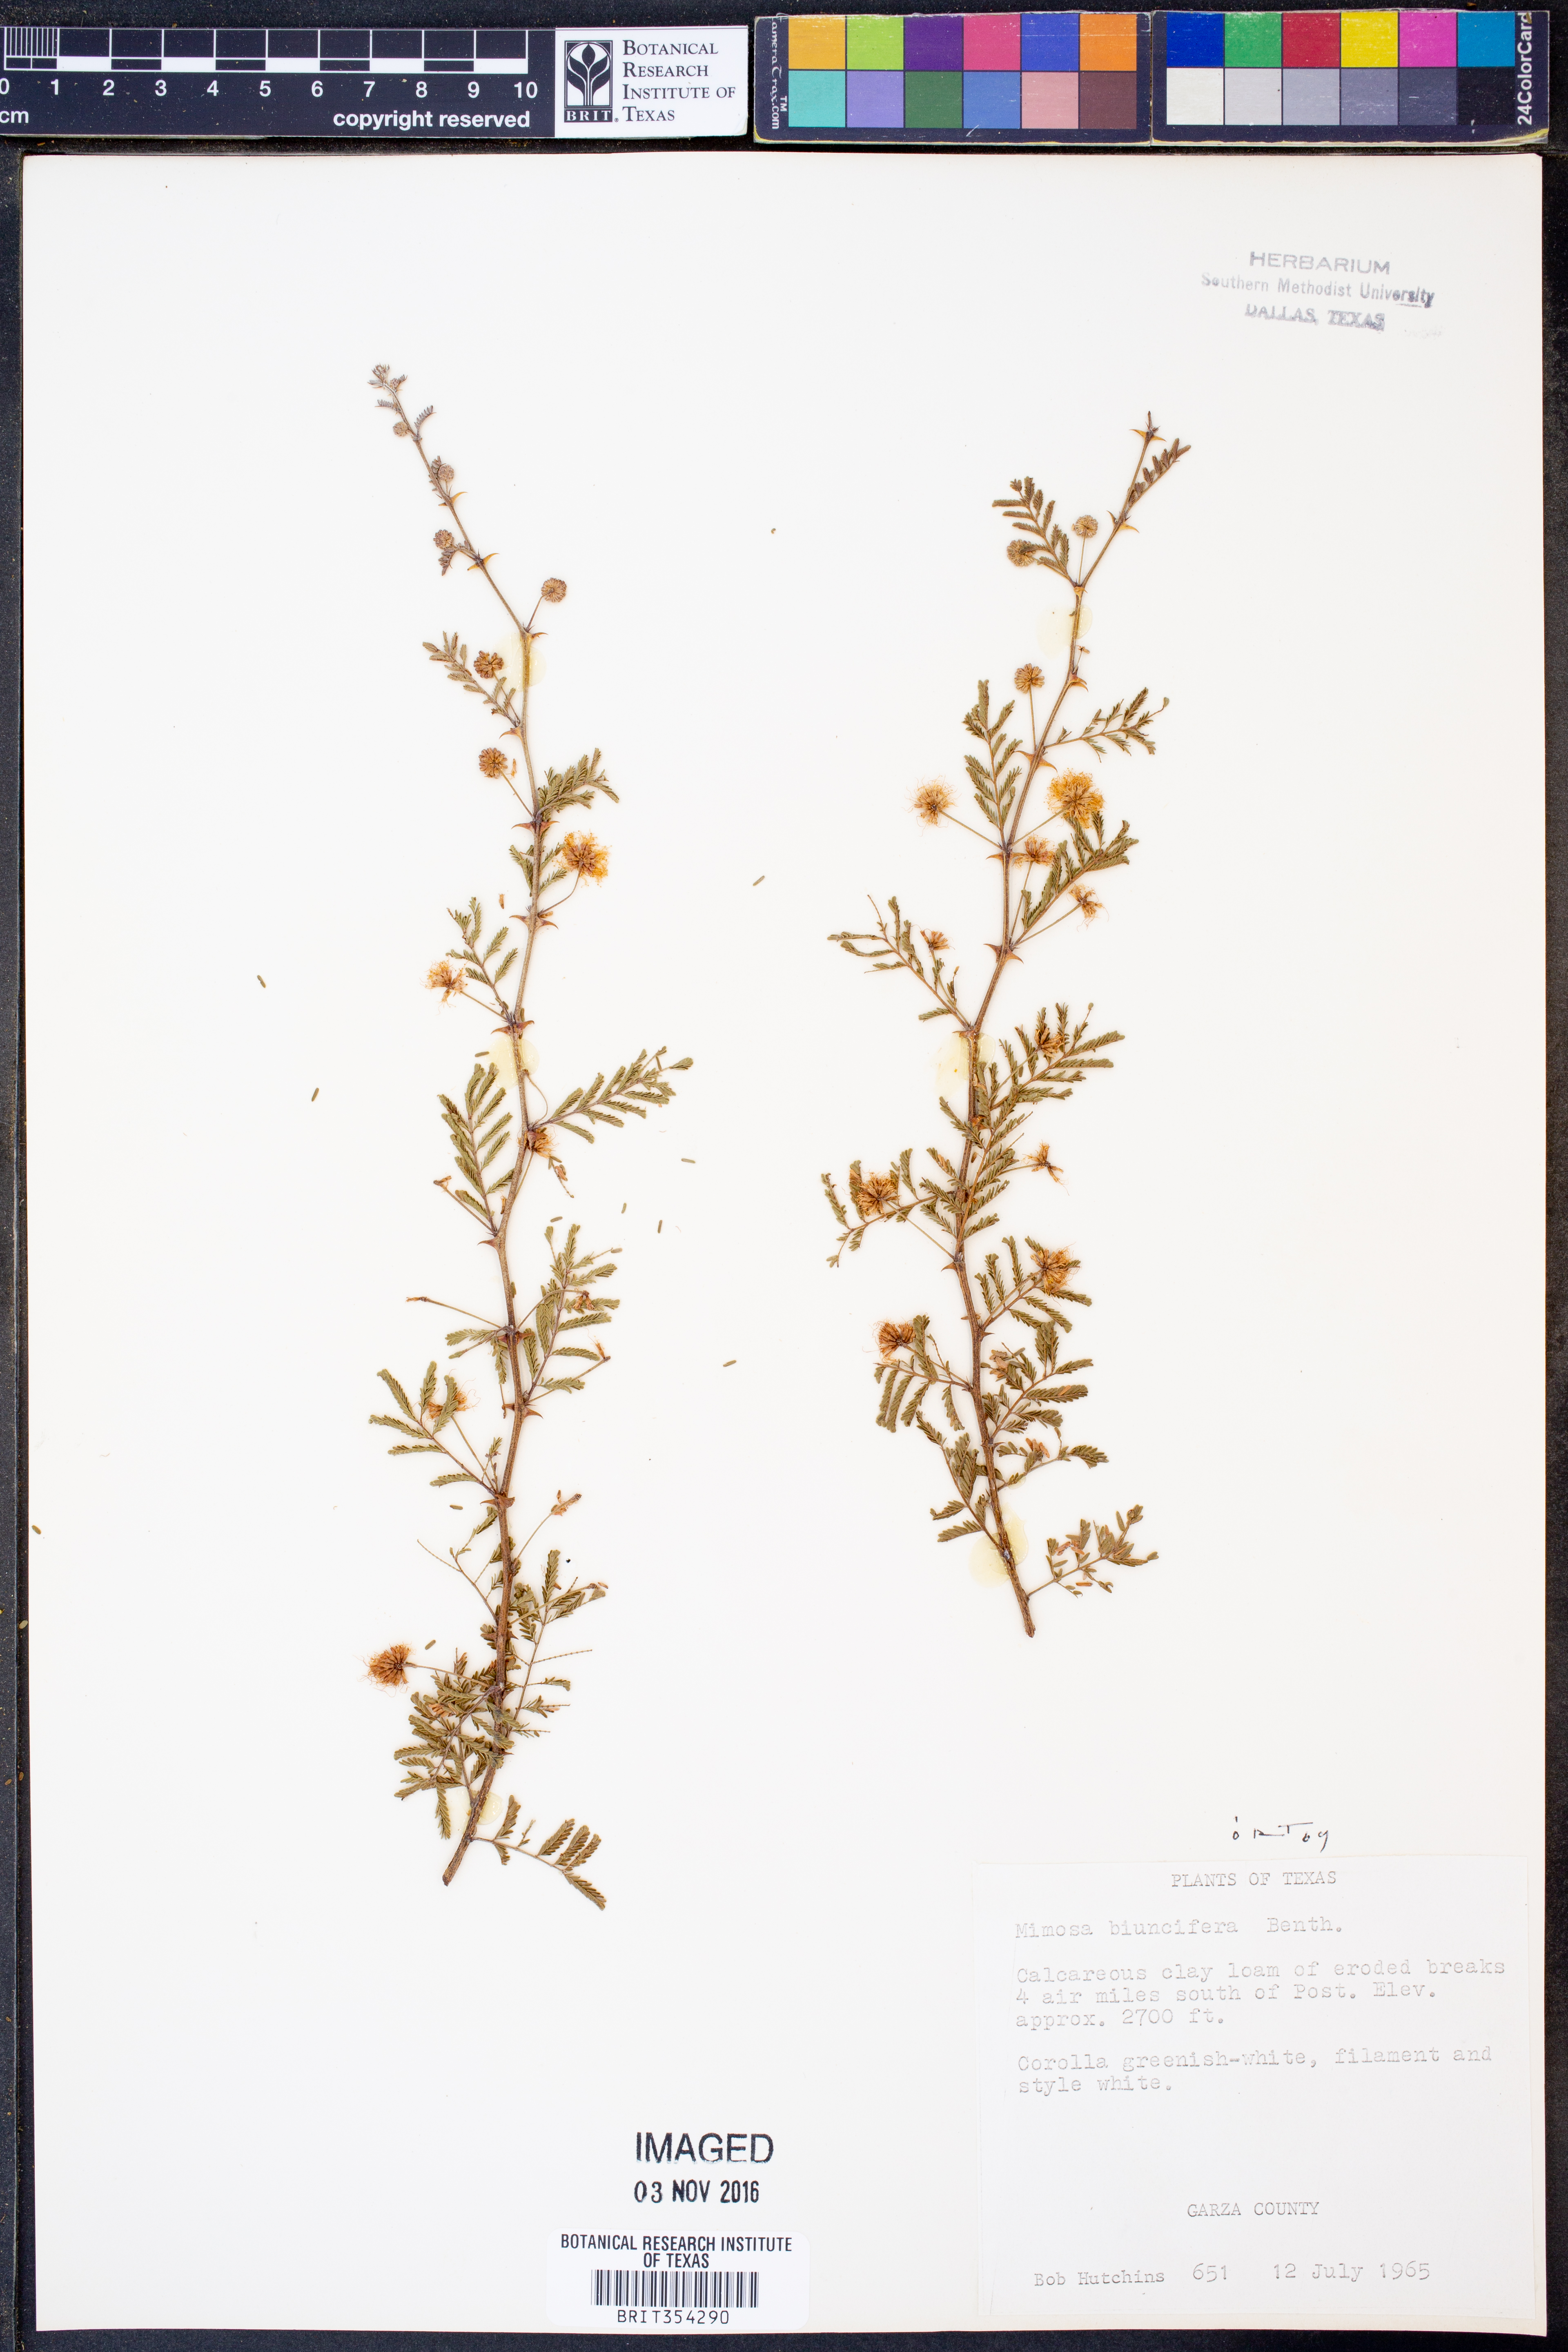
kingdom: Plantae
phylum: Tracheophyta
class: Magnoliopsida
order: Fabales
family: Fabaceae
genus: Mimosa
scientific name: Mimosa biuncifera
